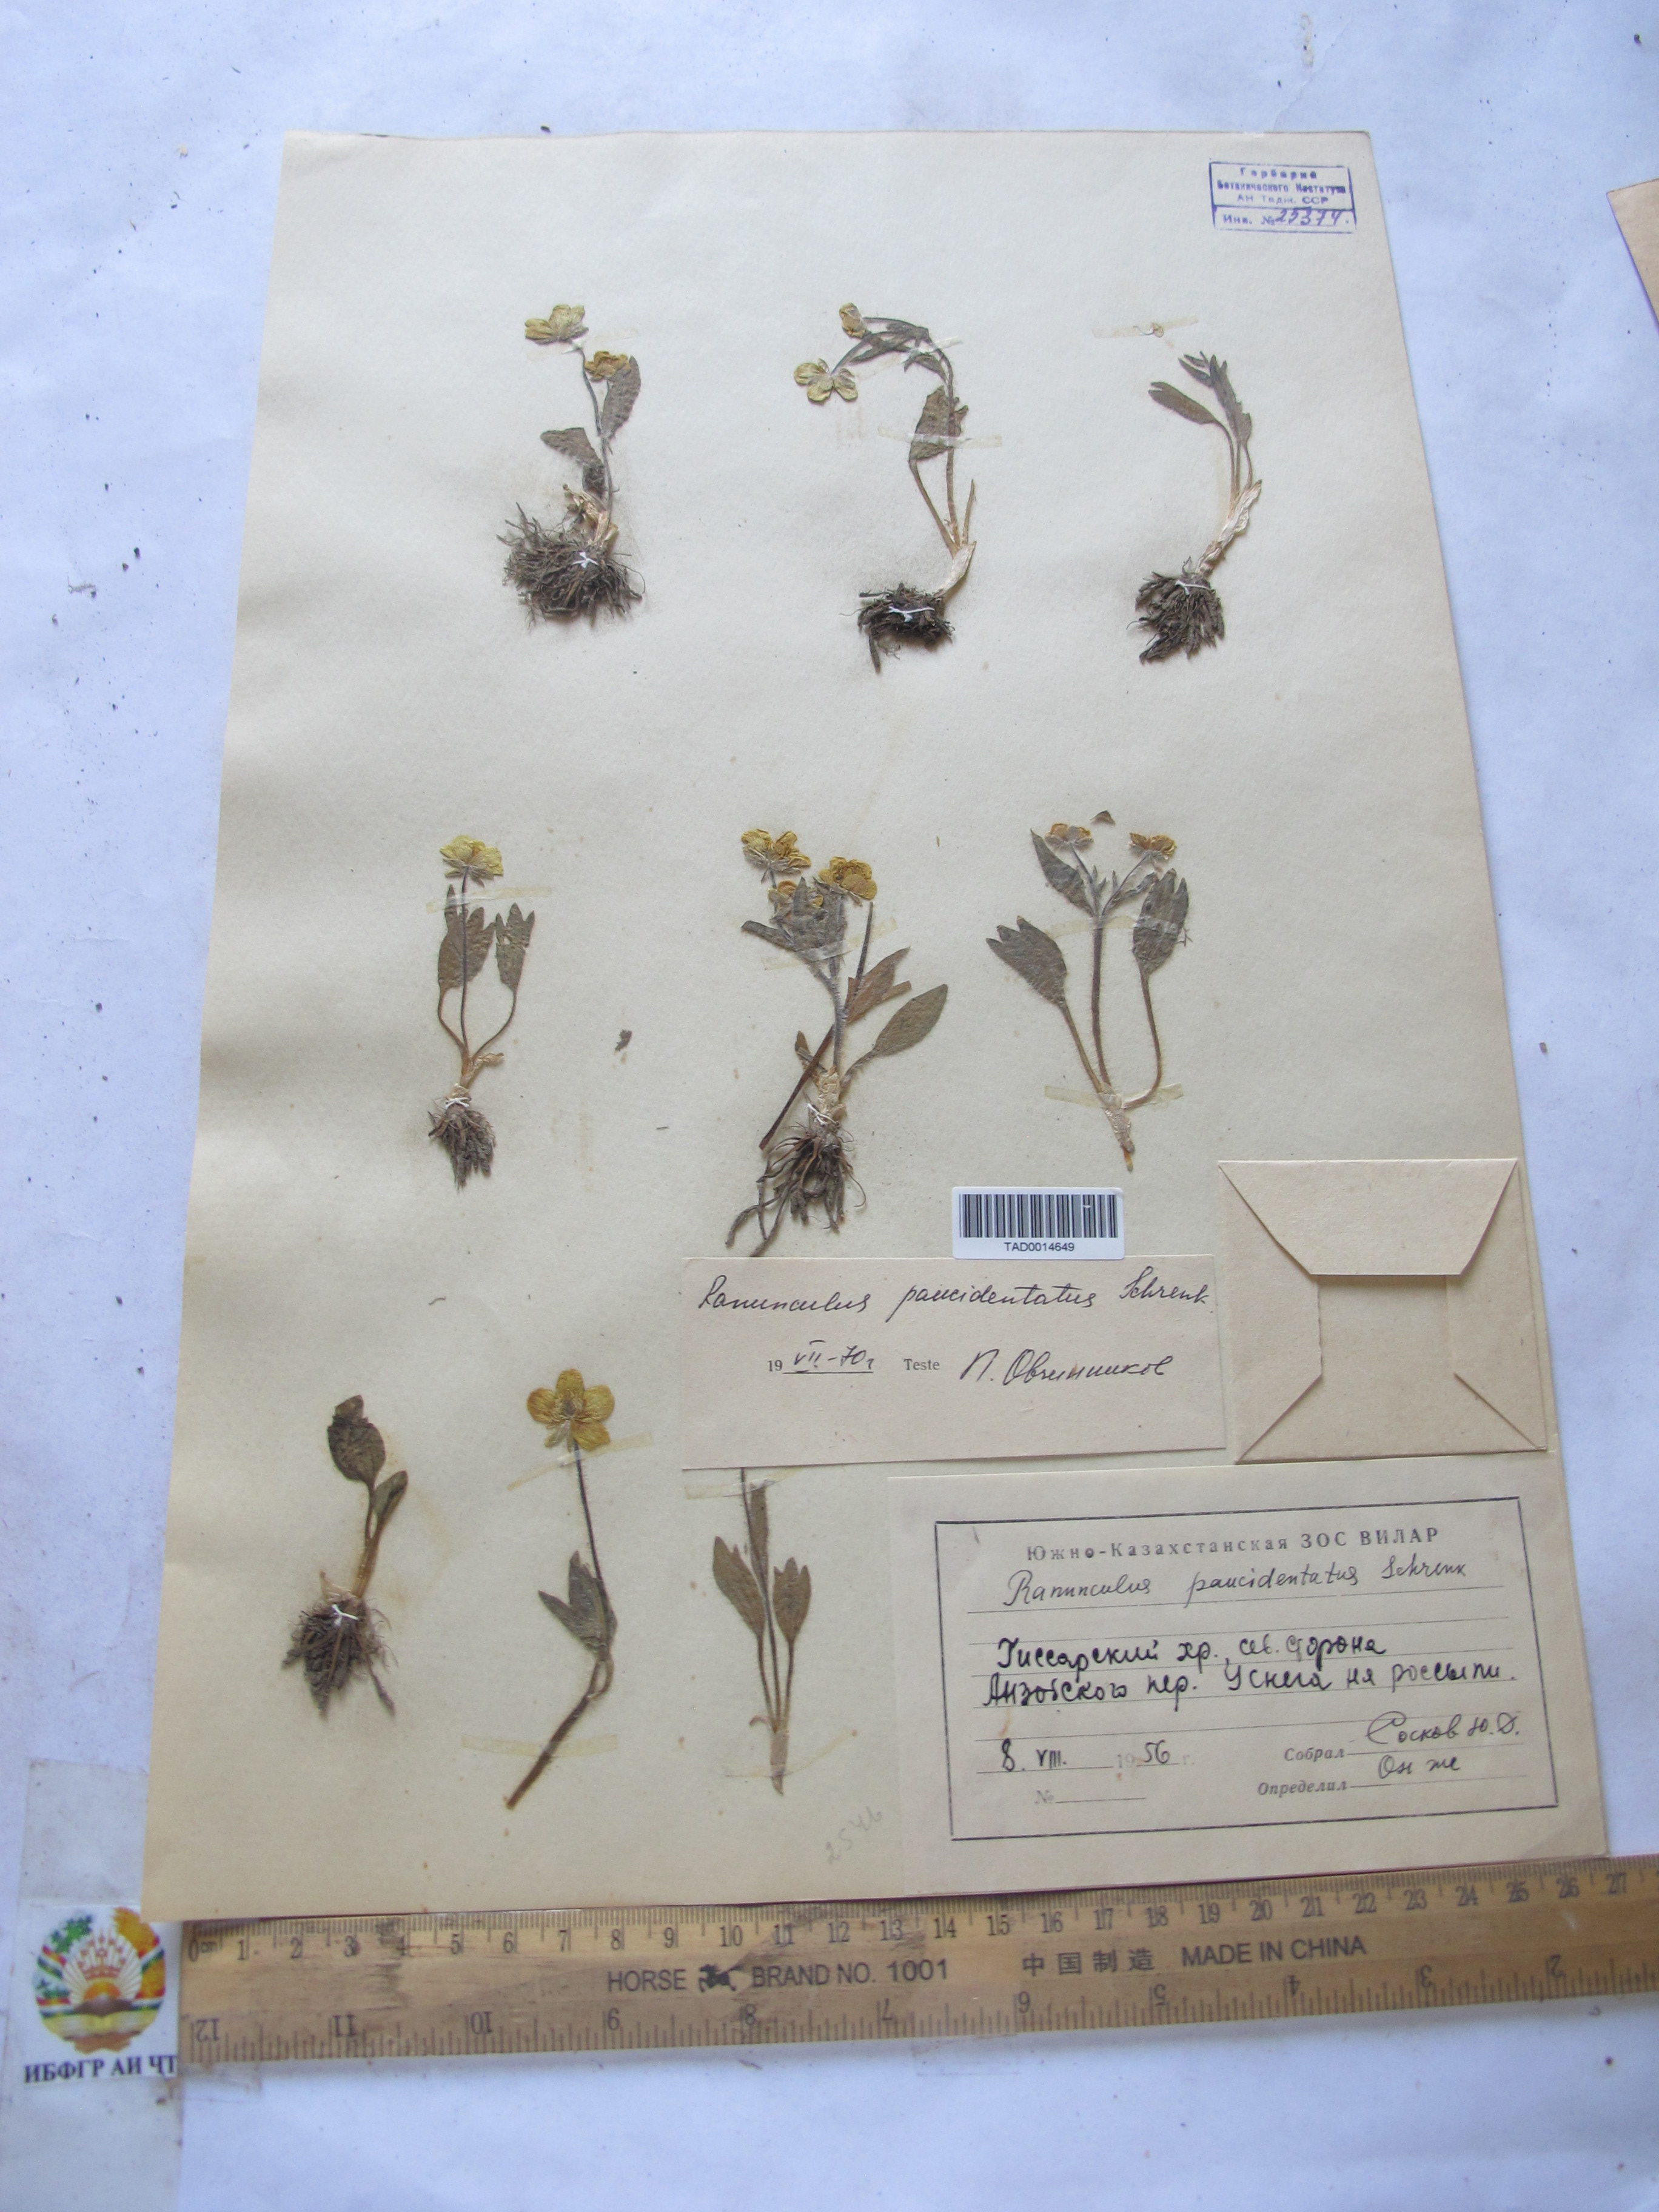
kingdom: Plantae
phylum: Tracheophyta
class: Magnoliopsida
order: Ranunculales
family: Ranunculaceae
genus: Ranunculus
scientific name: Ranunculus paucidentatus
